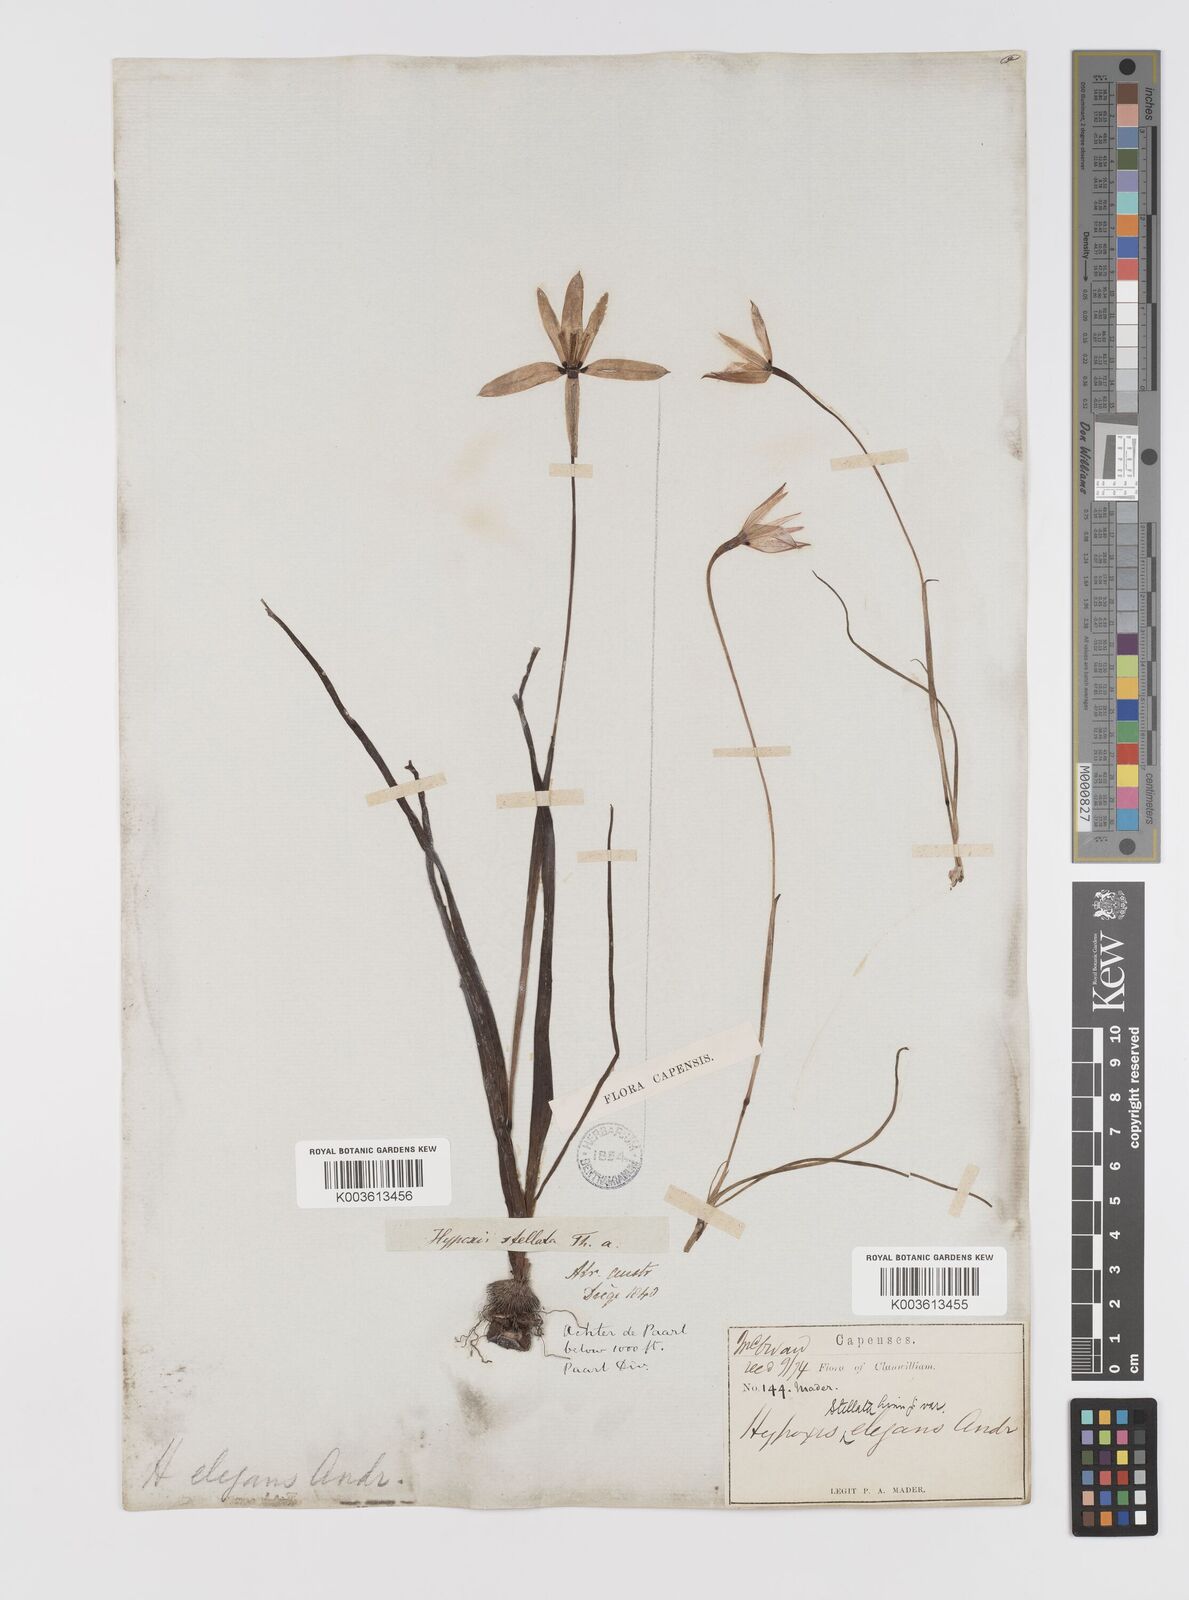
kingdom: Plantae
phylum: Tracheophyta
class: Liliopsida
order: Asparagales
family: Hypoxidaceae
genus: Pauridia
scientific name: Pauridia capensis
